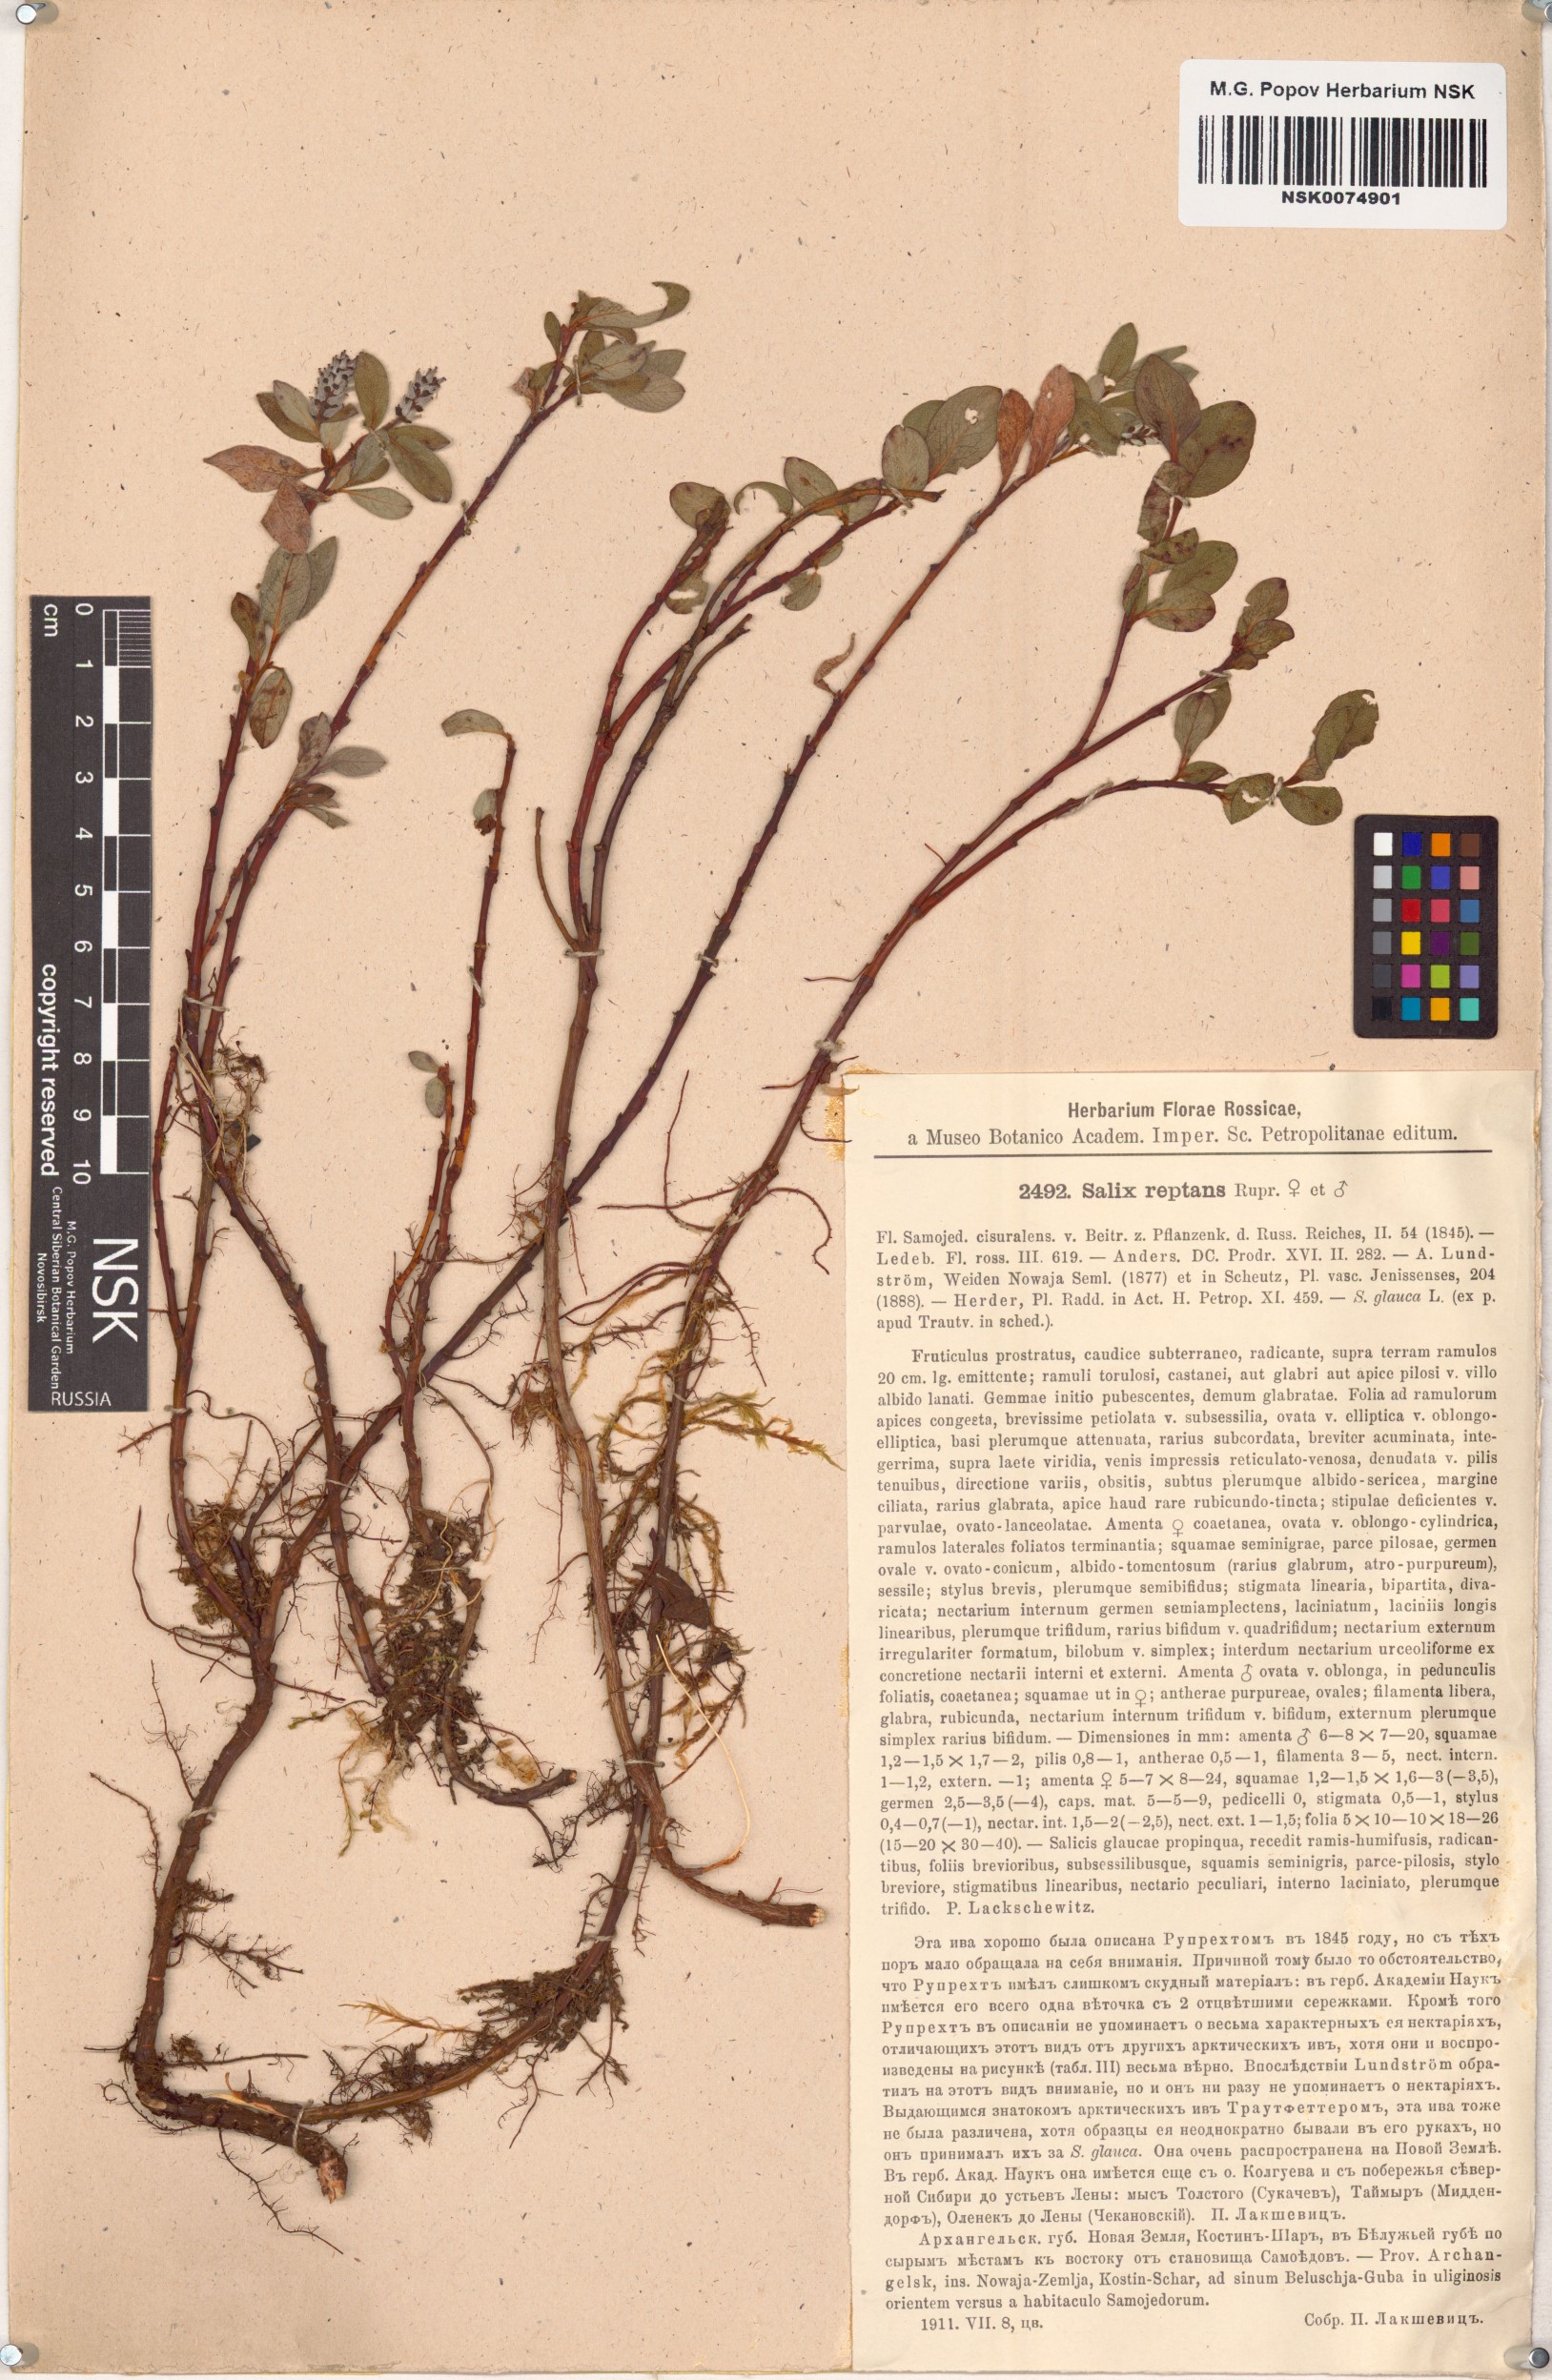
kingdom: Plantae
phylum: Tracheophyta
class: Magnoliopsida
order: Malpighiales
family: Salicaceae
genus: Salix
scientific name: Salix reptans
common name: Arctic creeping willow
